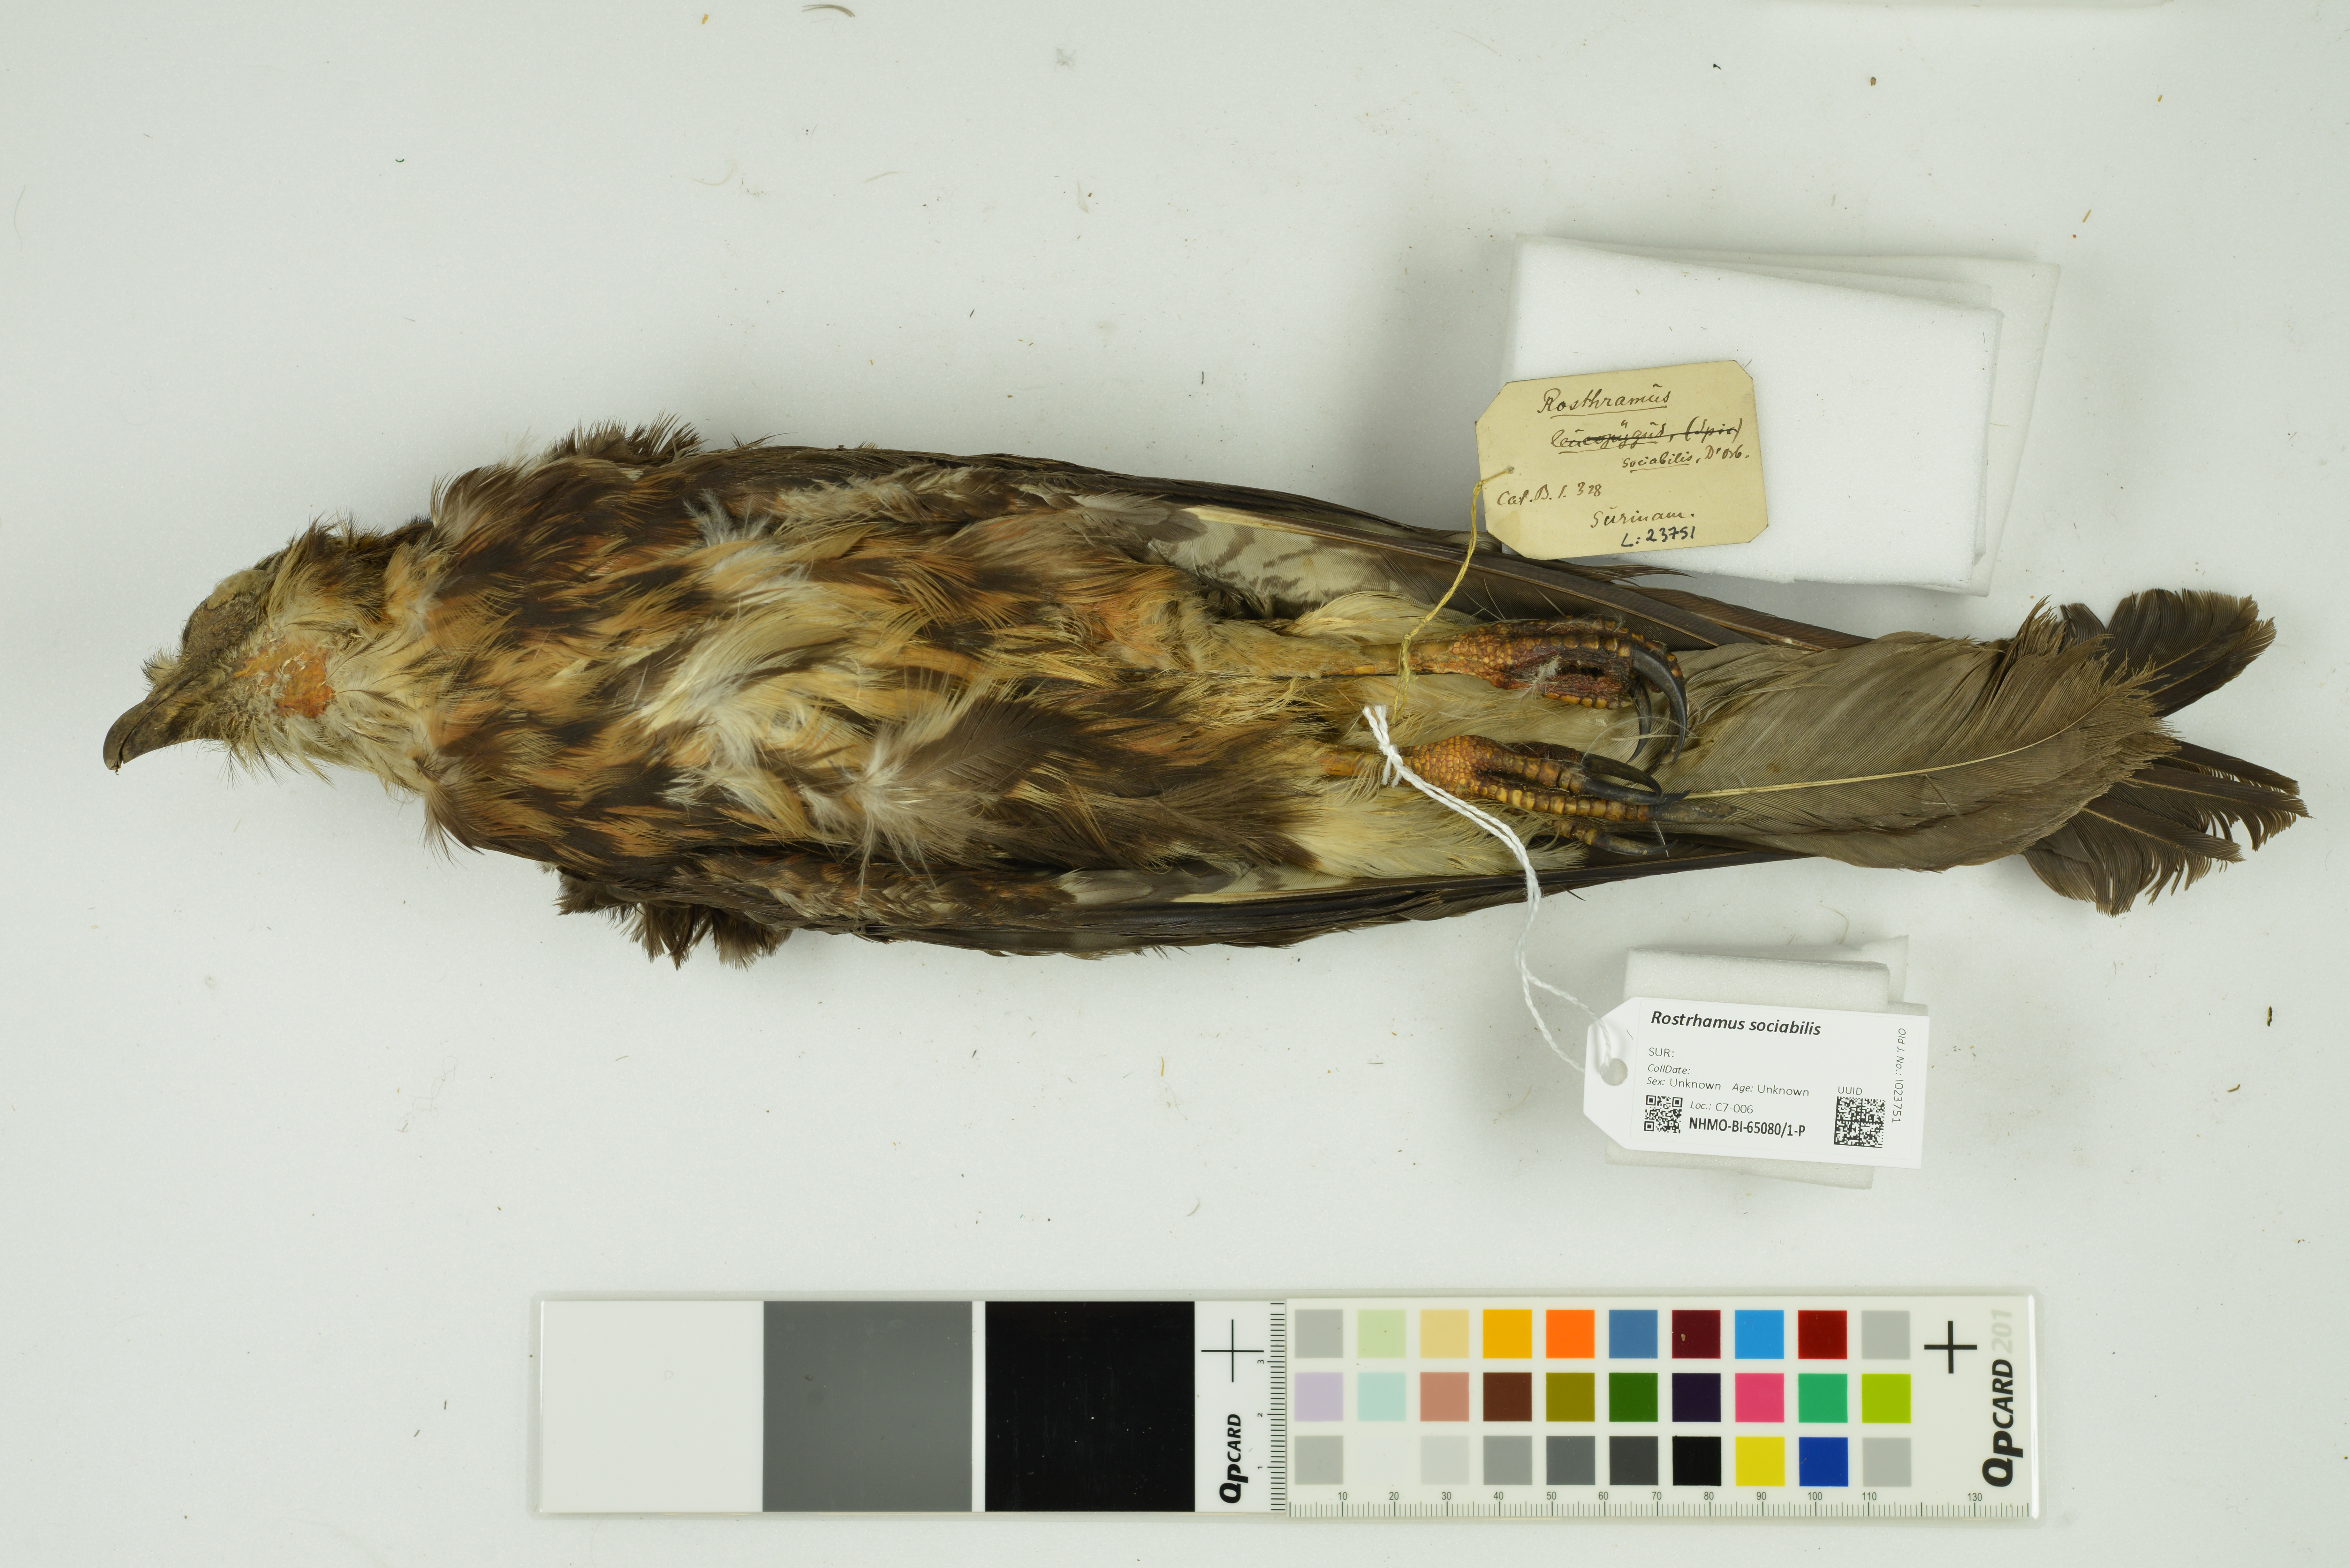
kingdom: Animalia
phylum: Chordata
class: Aves
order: Accipitriformes
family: Accipitridae
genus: Rostrhamus
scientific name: Rostrhamus sociabilis
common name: Snail kite
